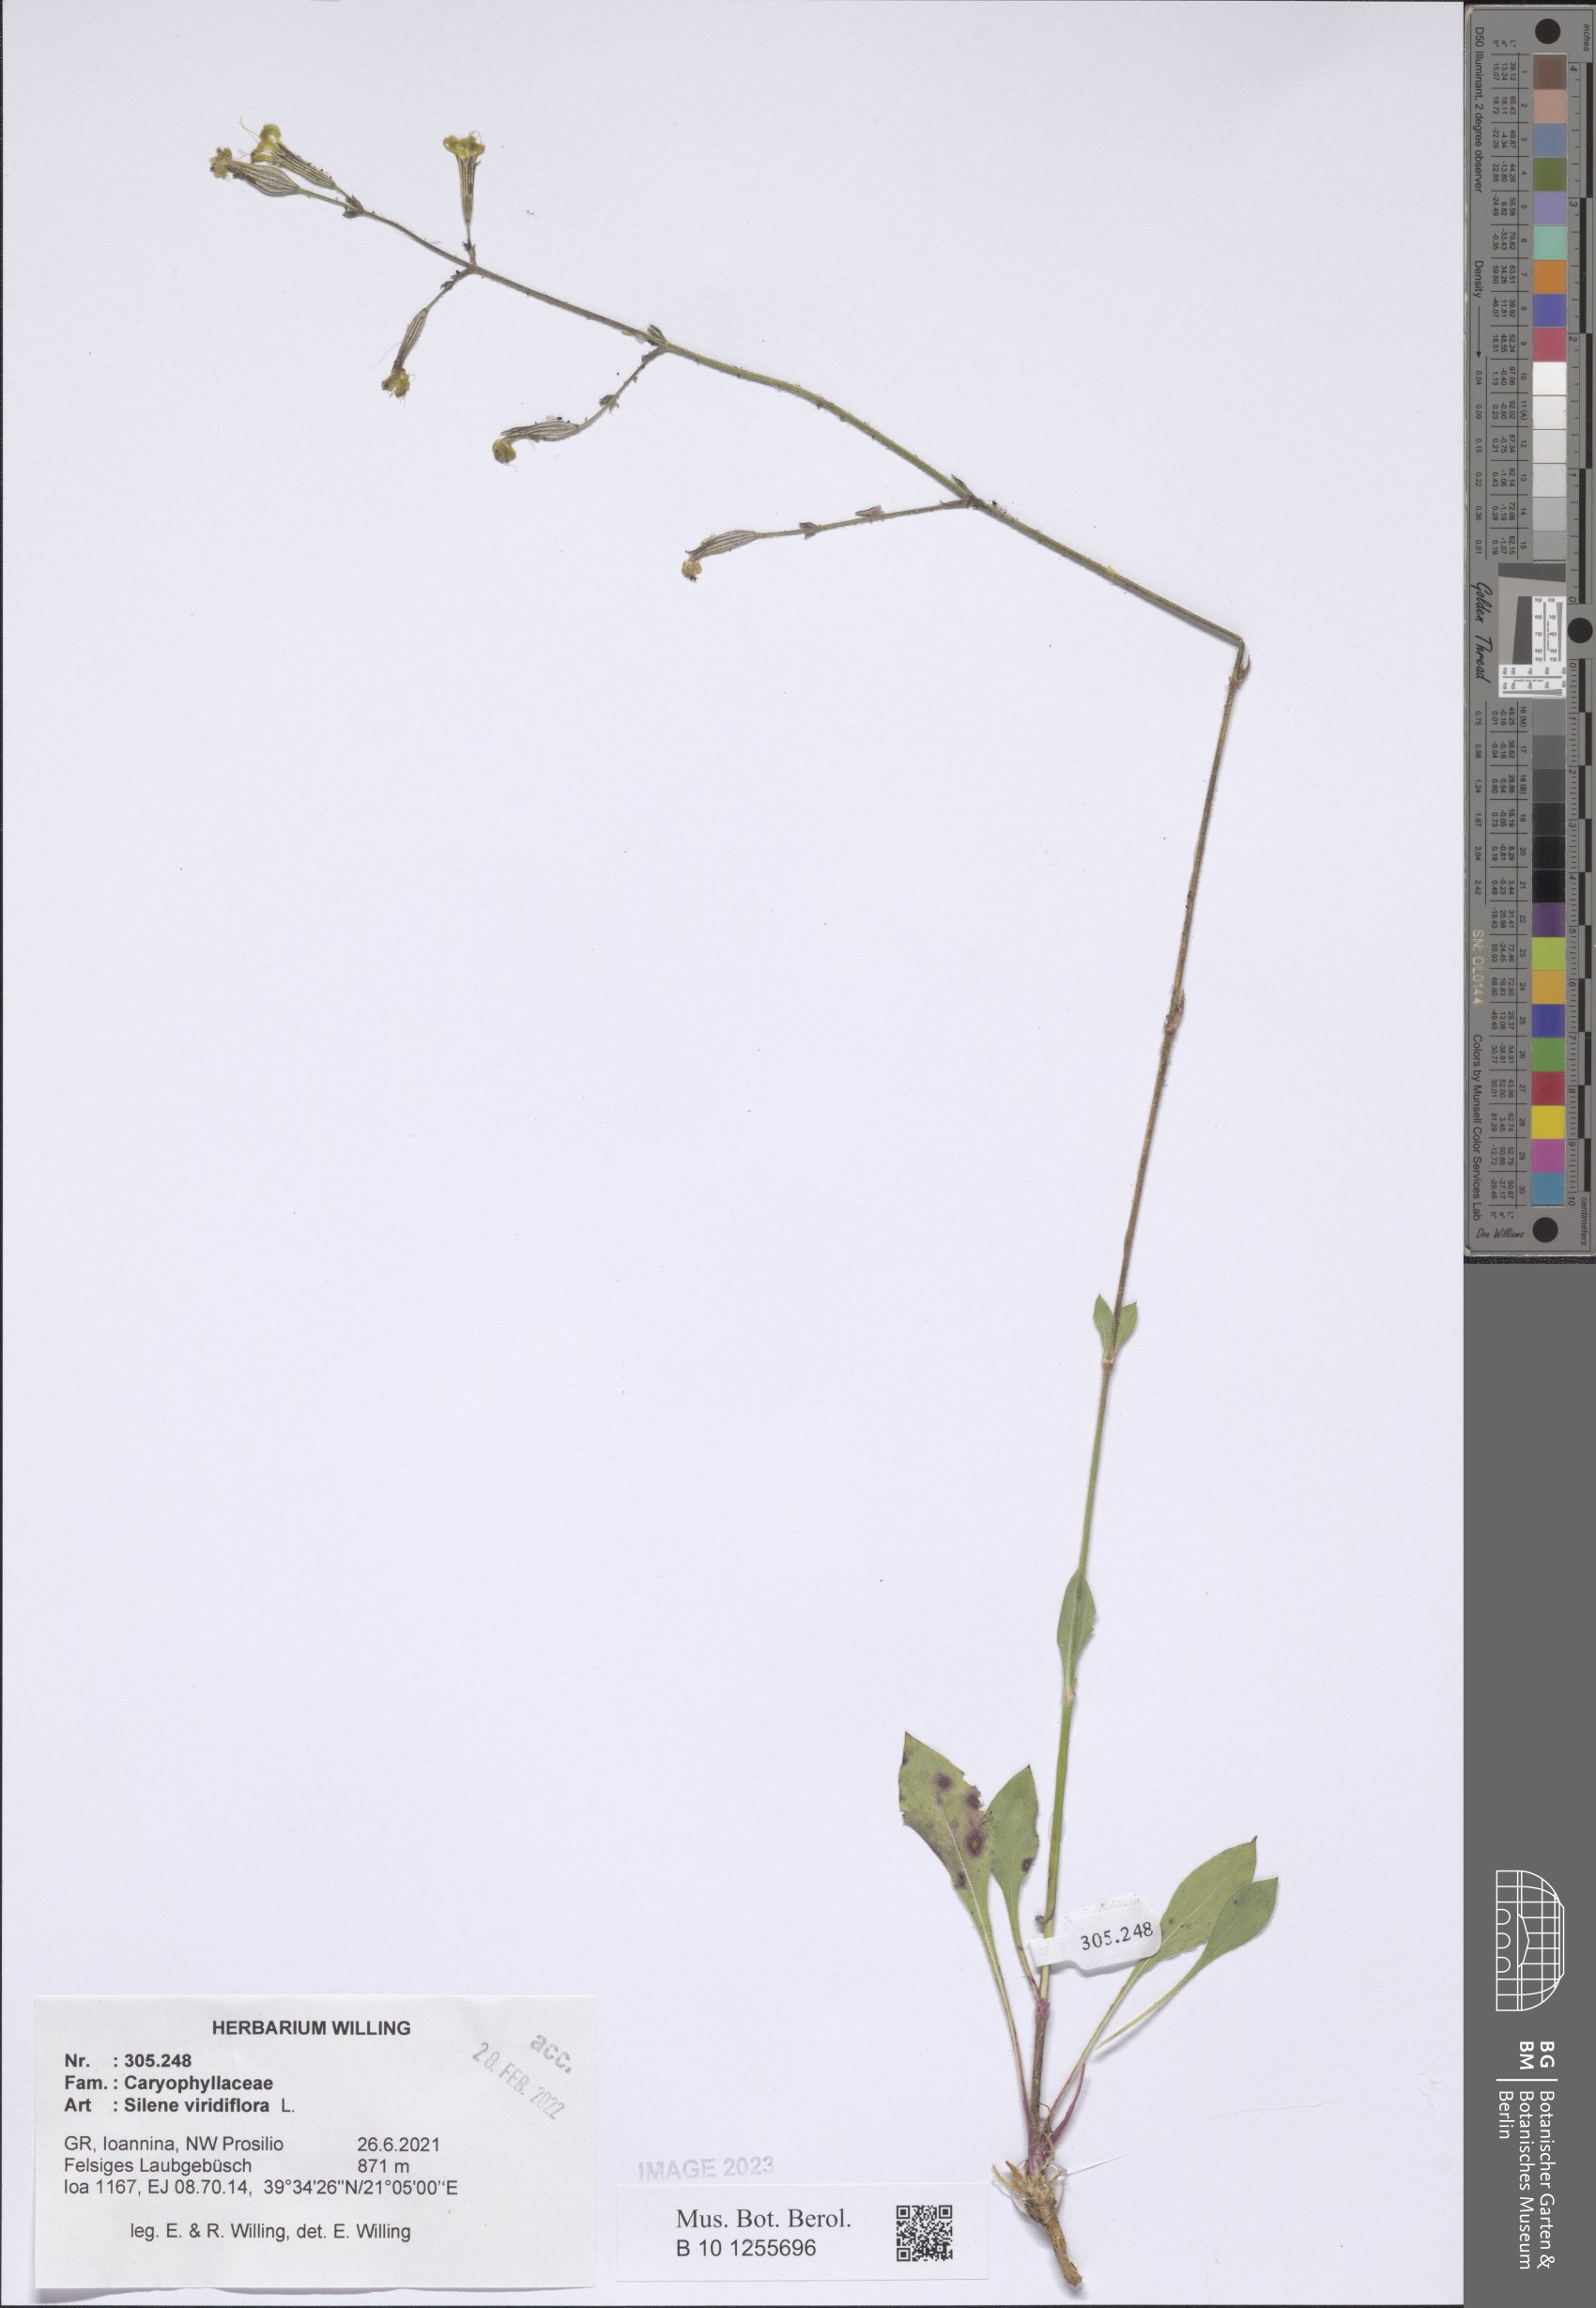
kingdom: Plantae
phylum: Tracheophyta
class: Magnoliopsida
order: Caryophyllales
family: Caryophyllaceae
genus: Silene
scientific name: Silene viridiflora
